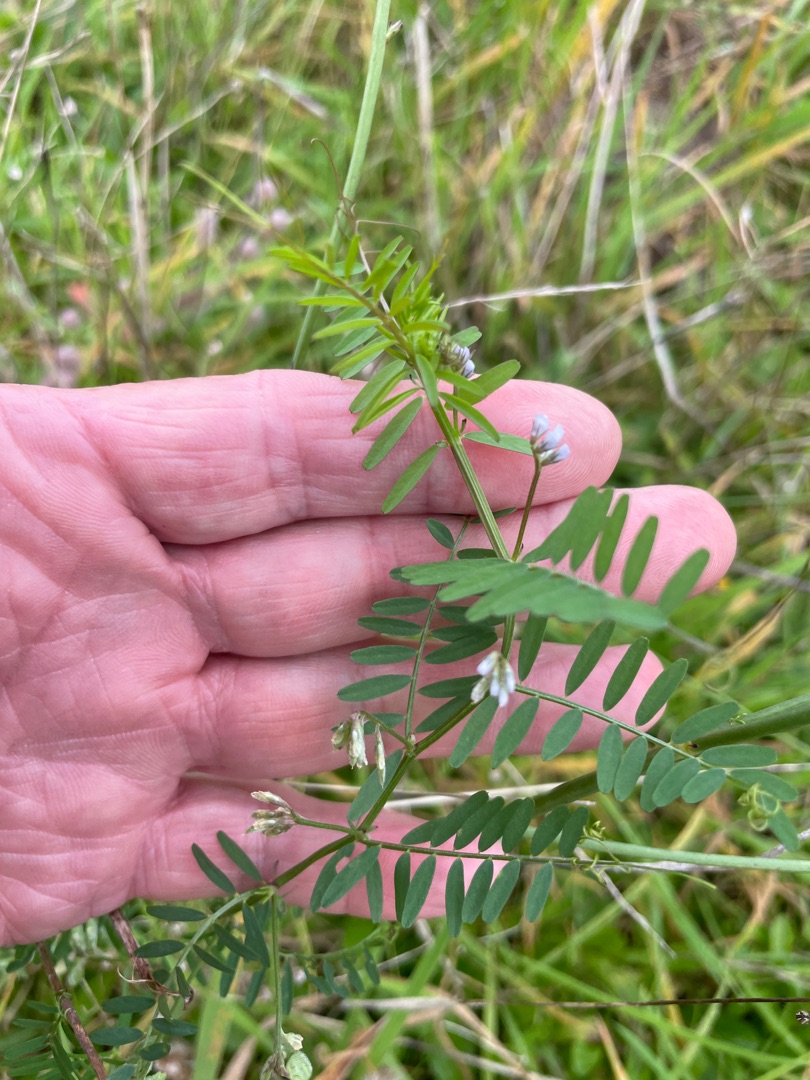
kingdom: Plantae
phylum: Tracheophyta
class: Magnoliopsida
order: Fabales
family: Fabaceae
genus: Vicia
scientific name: Vicia hirsuta
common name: Tofrøet vikke
